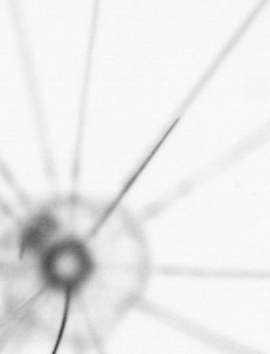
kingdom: Chromista
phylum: Ochrophyta
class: Bacillariophyceae
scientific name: Bacillariophyceae
